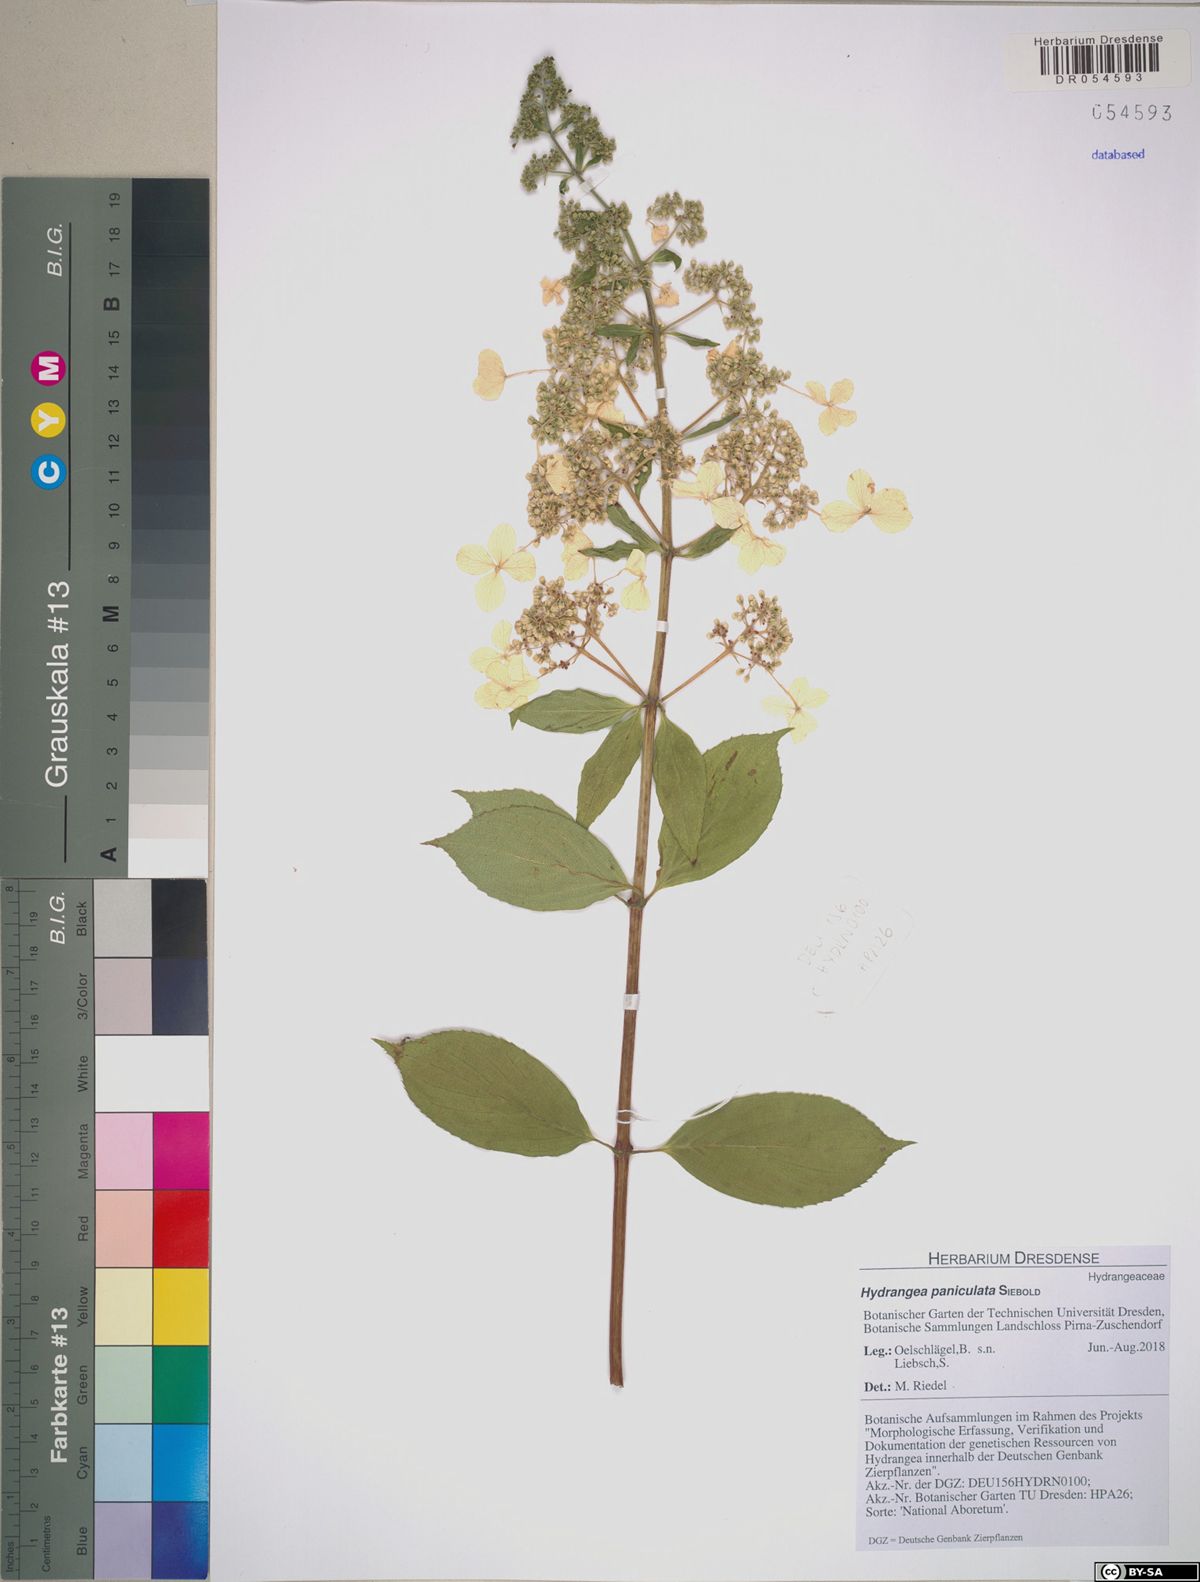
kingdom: Plantae
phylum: Tracheophyta
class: Magnoliopsida
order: Cornales
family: Hydrangeaceae
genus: Hydrangea
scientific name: Hydrangea paniculata
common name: Panicled hydrangea
